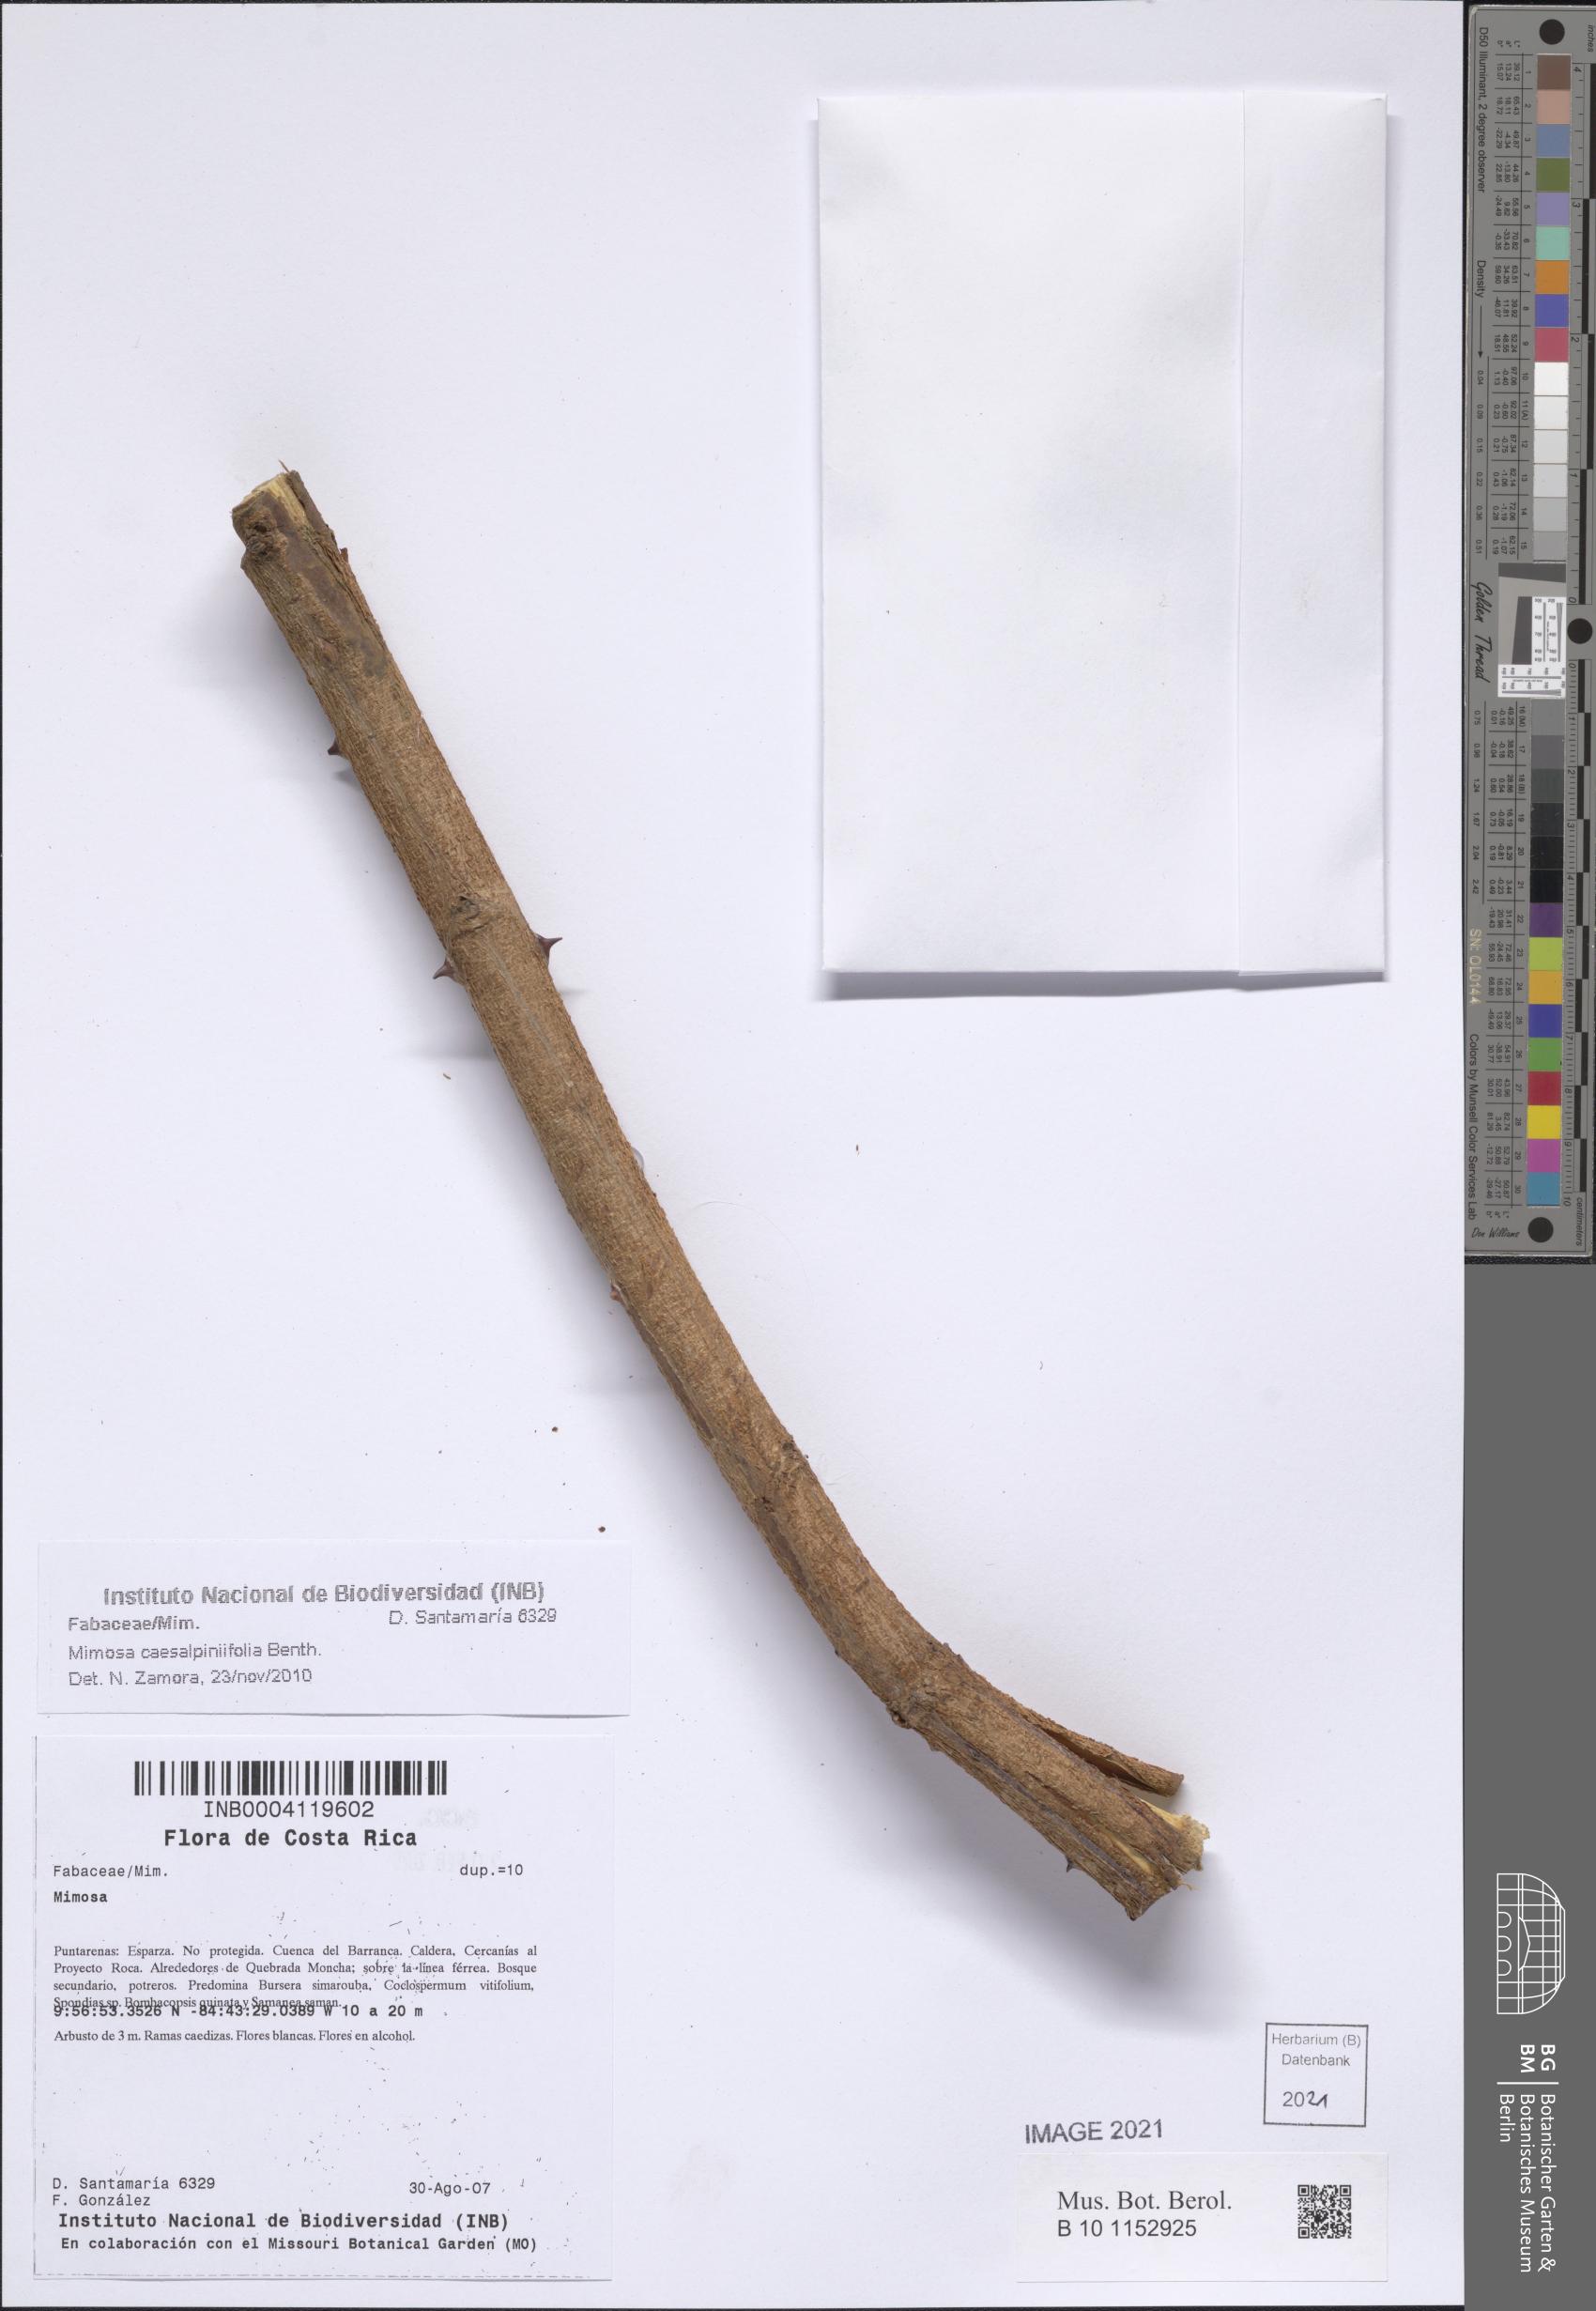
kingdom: Plantae
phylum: Tracheophyta
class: Magnoliopsida
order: Fabales
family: Fabaceae
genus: Mimosa
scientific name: Mimosa caesalpiniifolia
